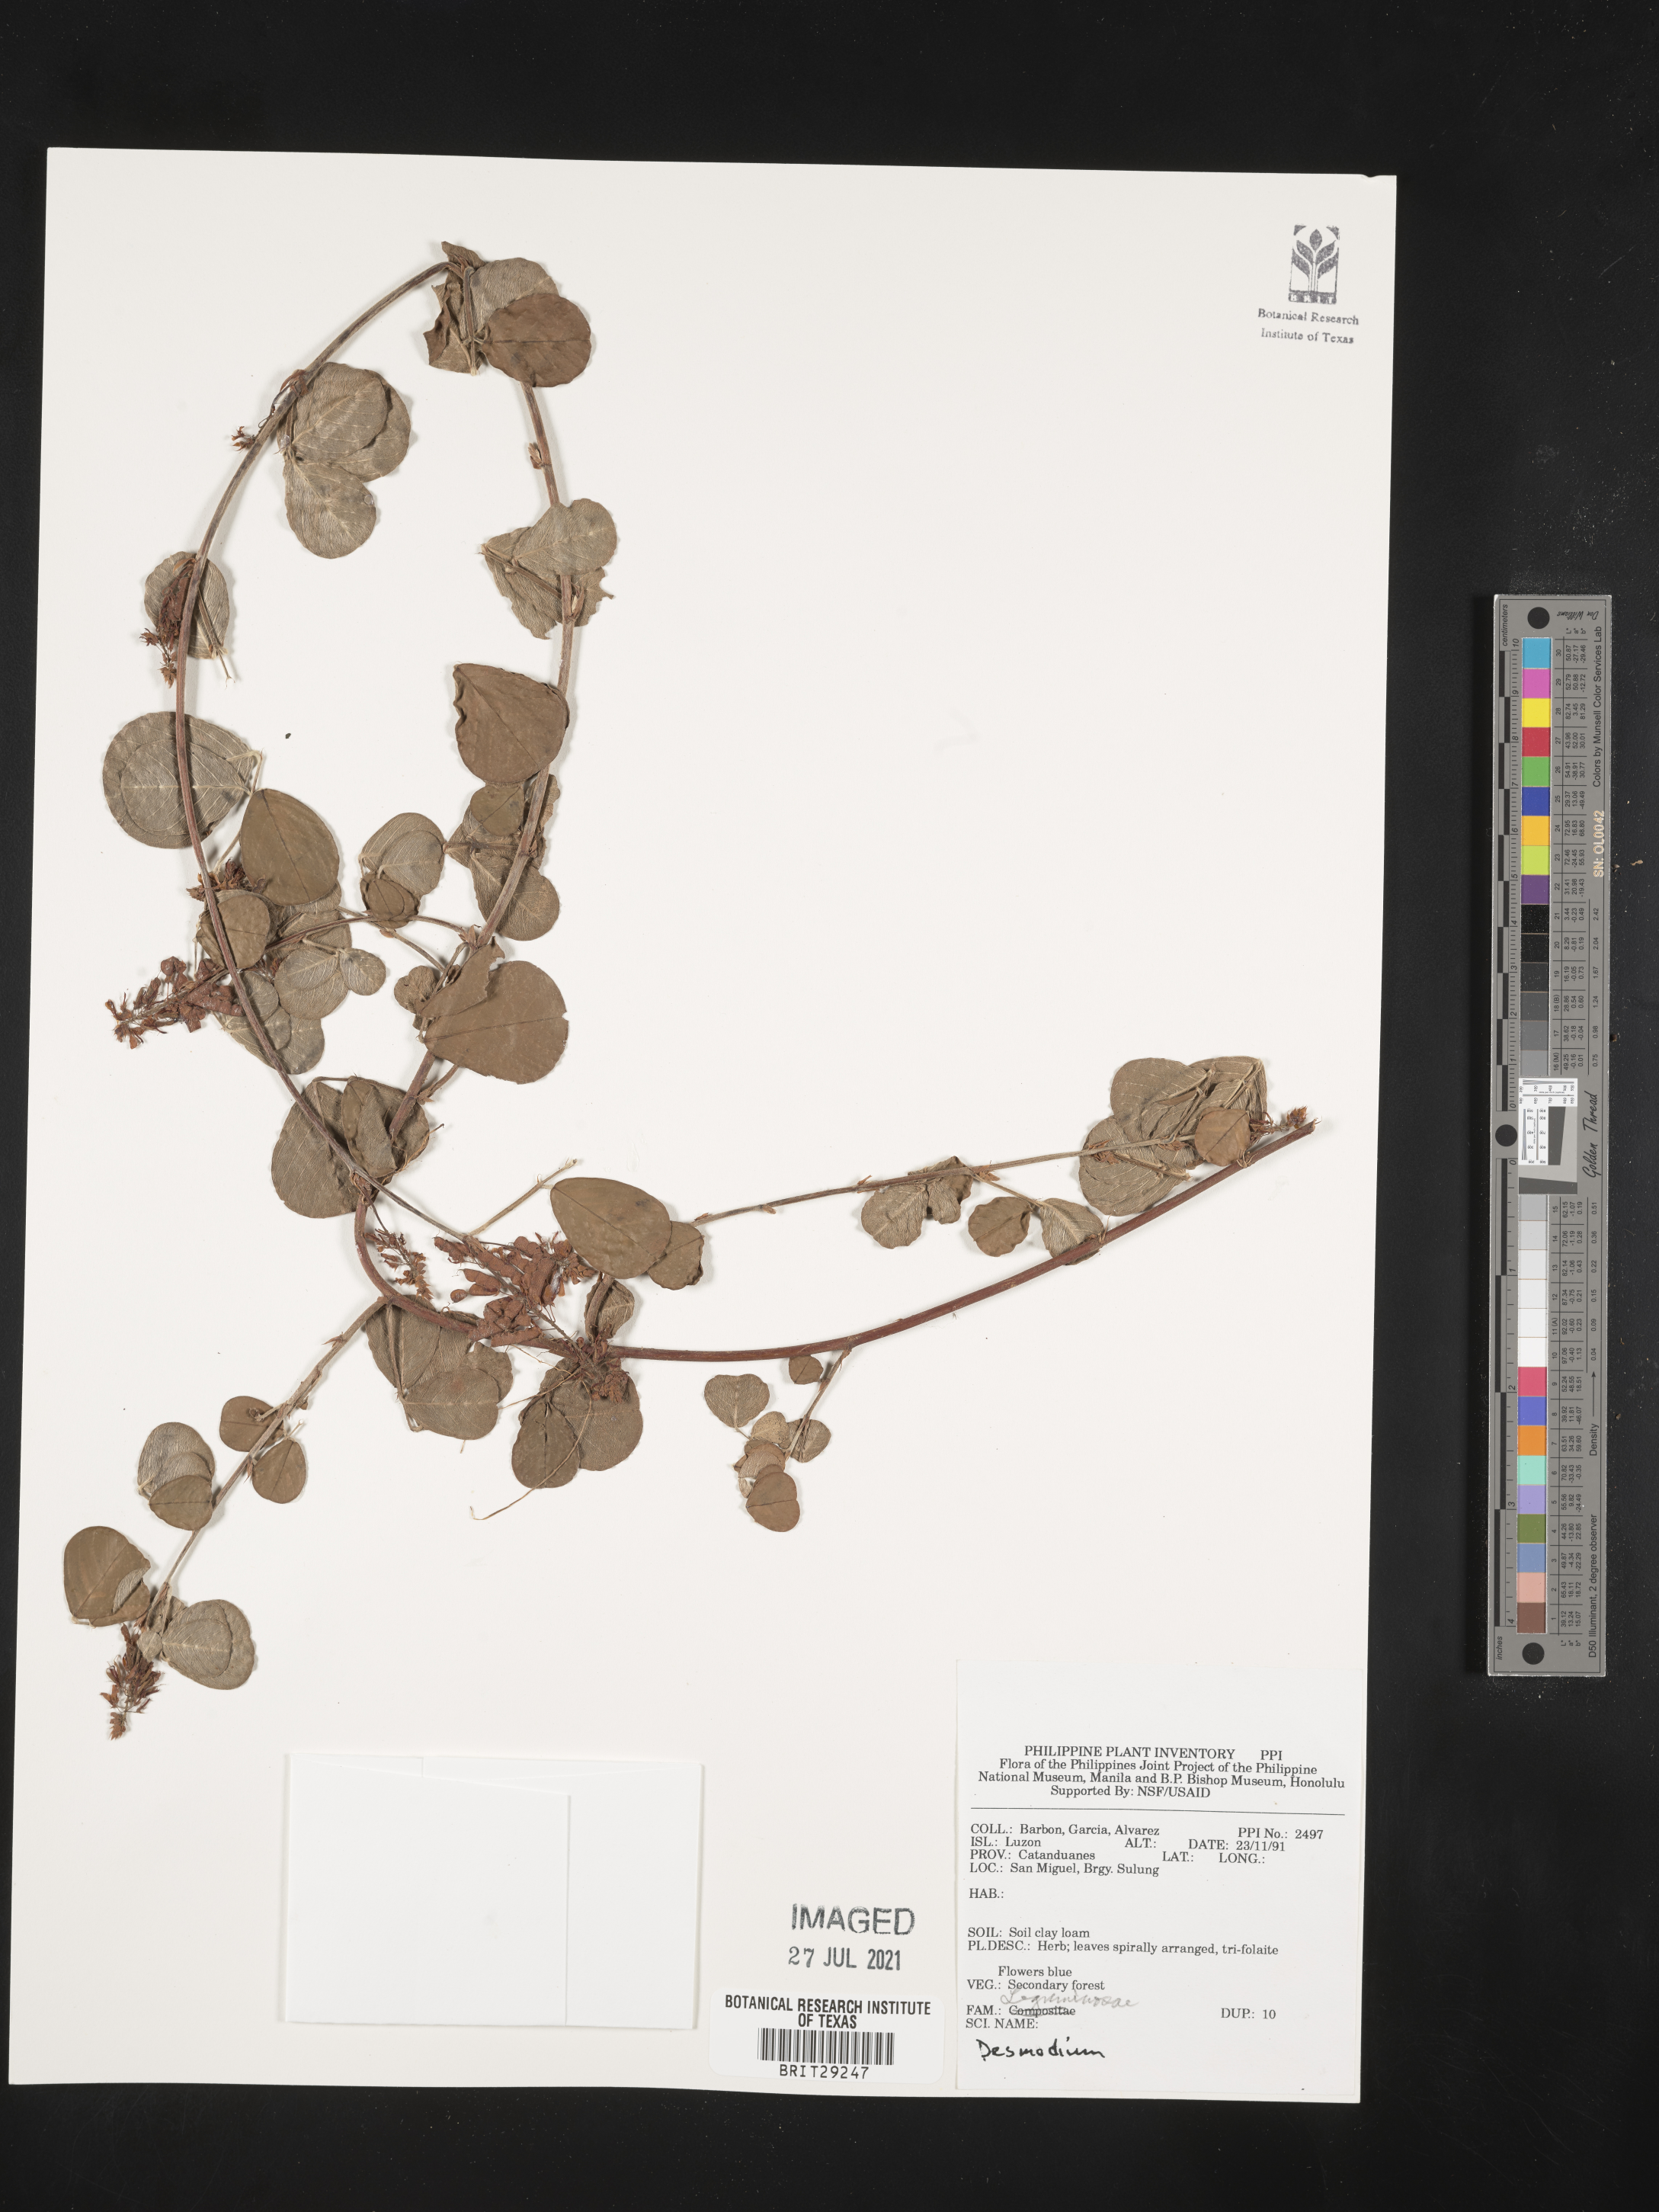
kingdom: Plantae
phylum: Tracheophyta
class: Magnoliopsida
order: Fabales
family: Fabaceae
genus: Desmodium
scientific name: Desmodium
